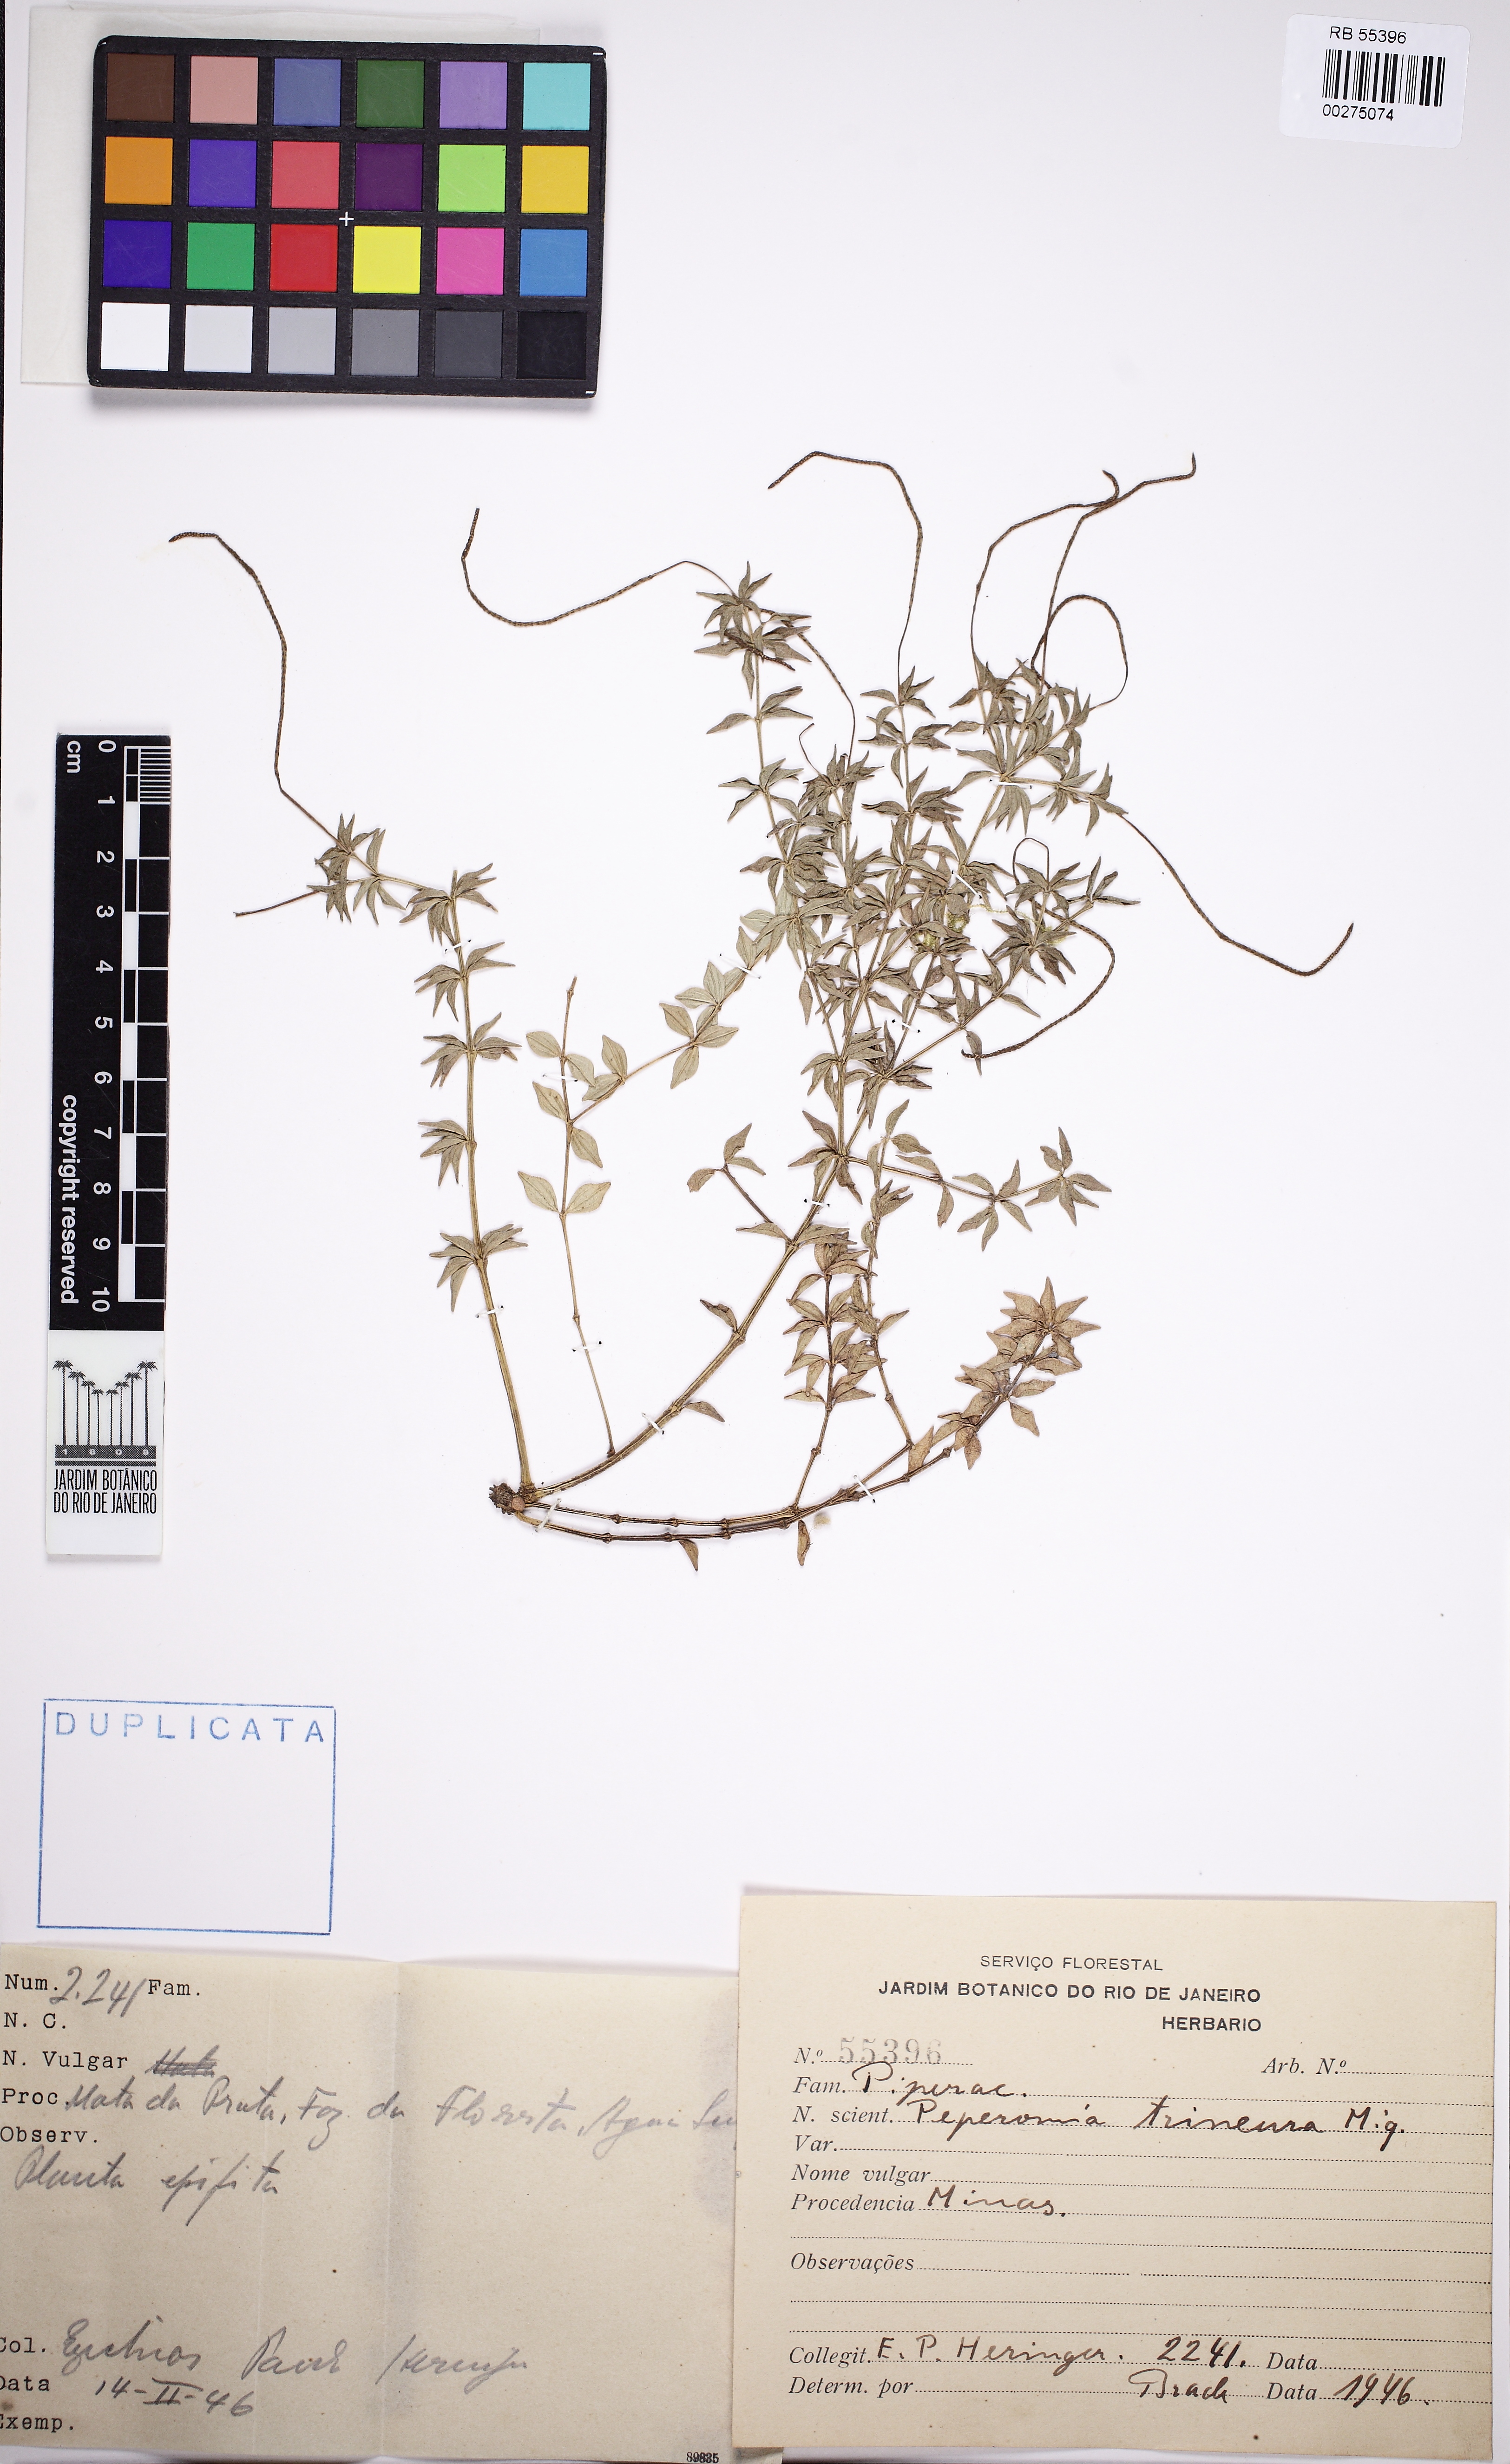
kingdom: Plantae
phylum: Tracheophyta
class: Magnoliopsida
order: Piperales
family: Piperaceae
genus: Peperomia
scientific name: Peperomia trineura
